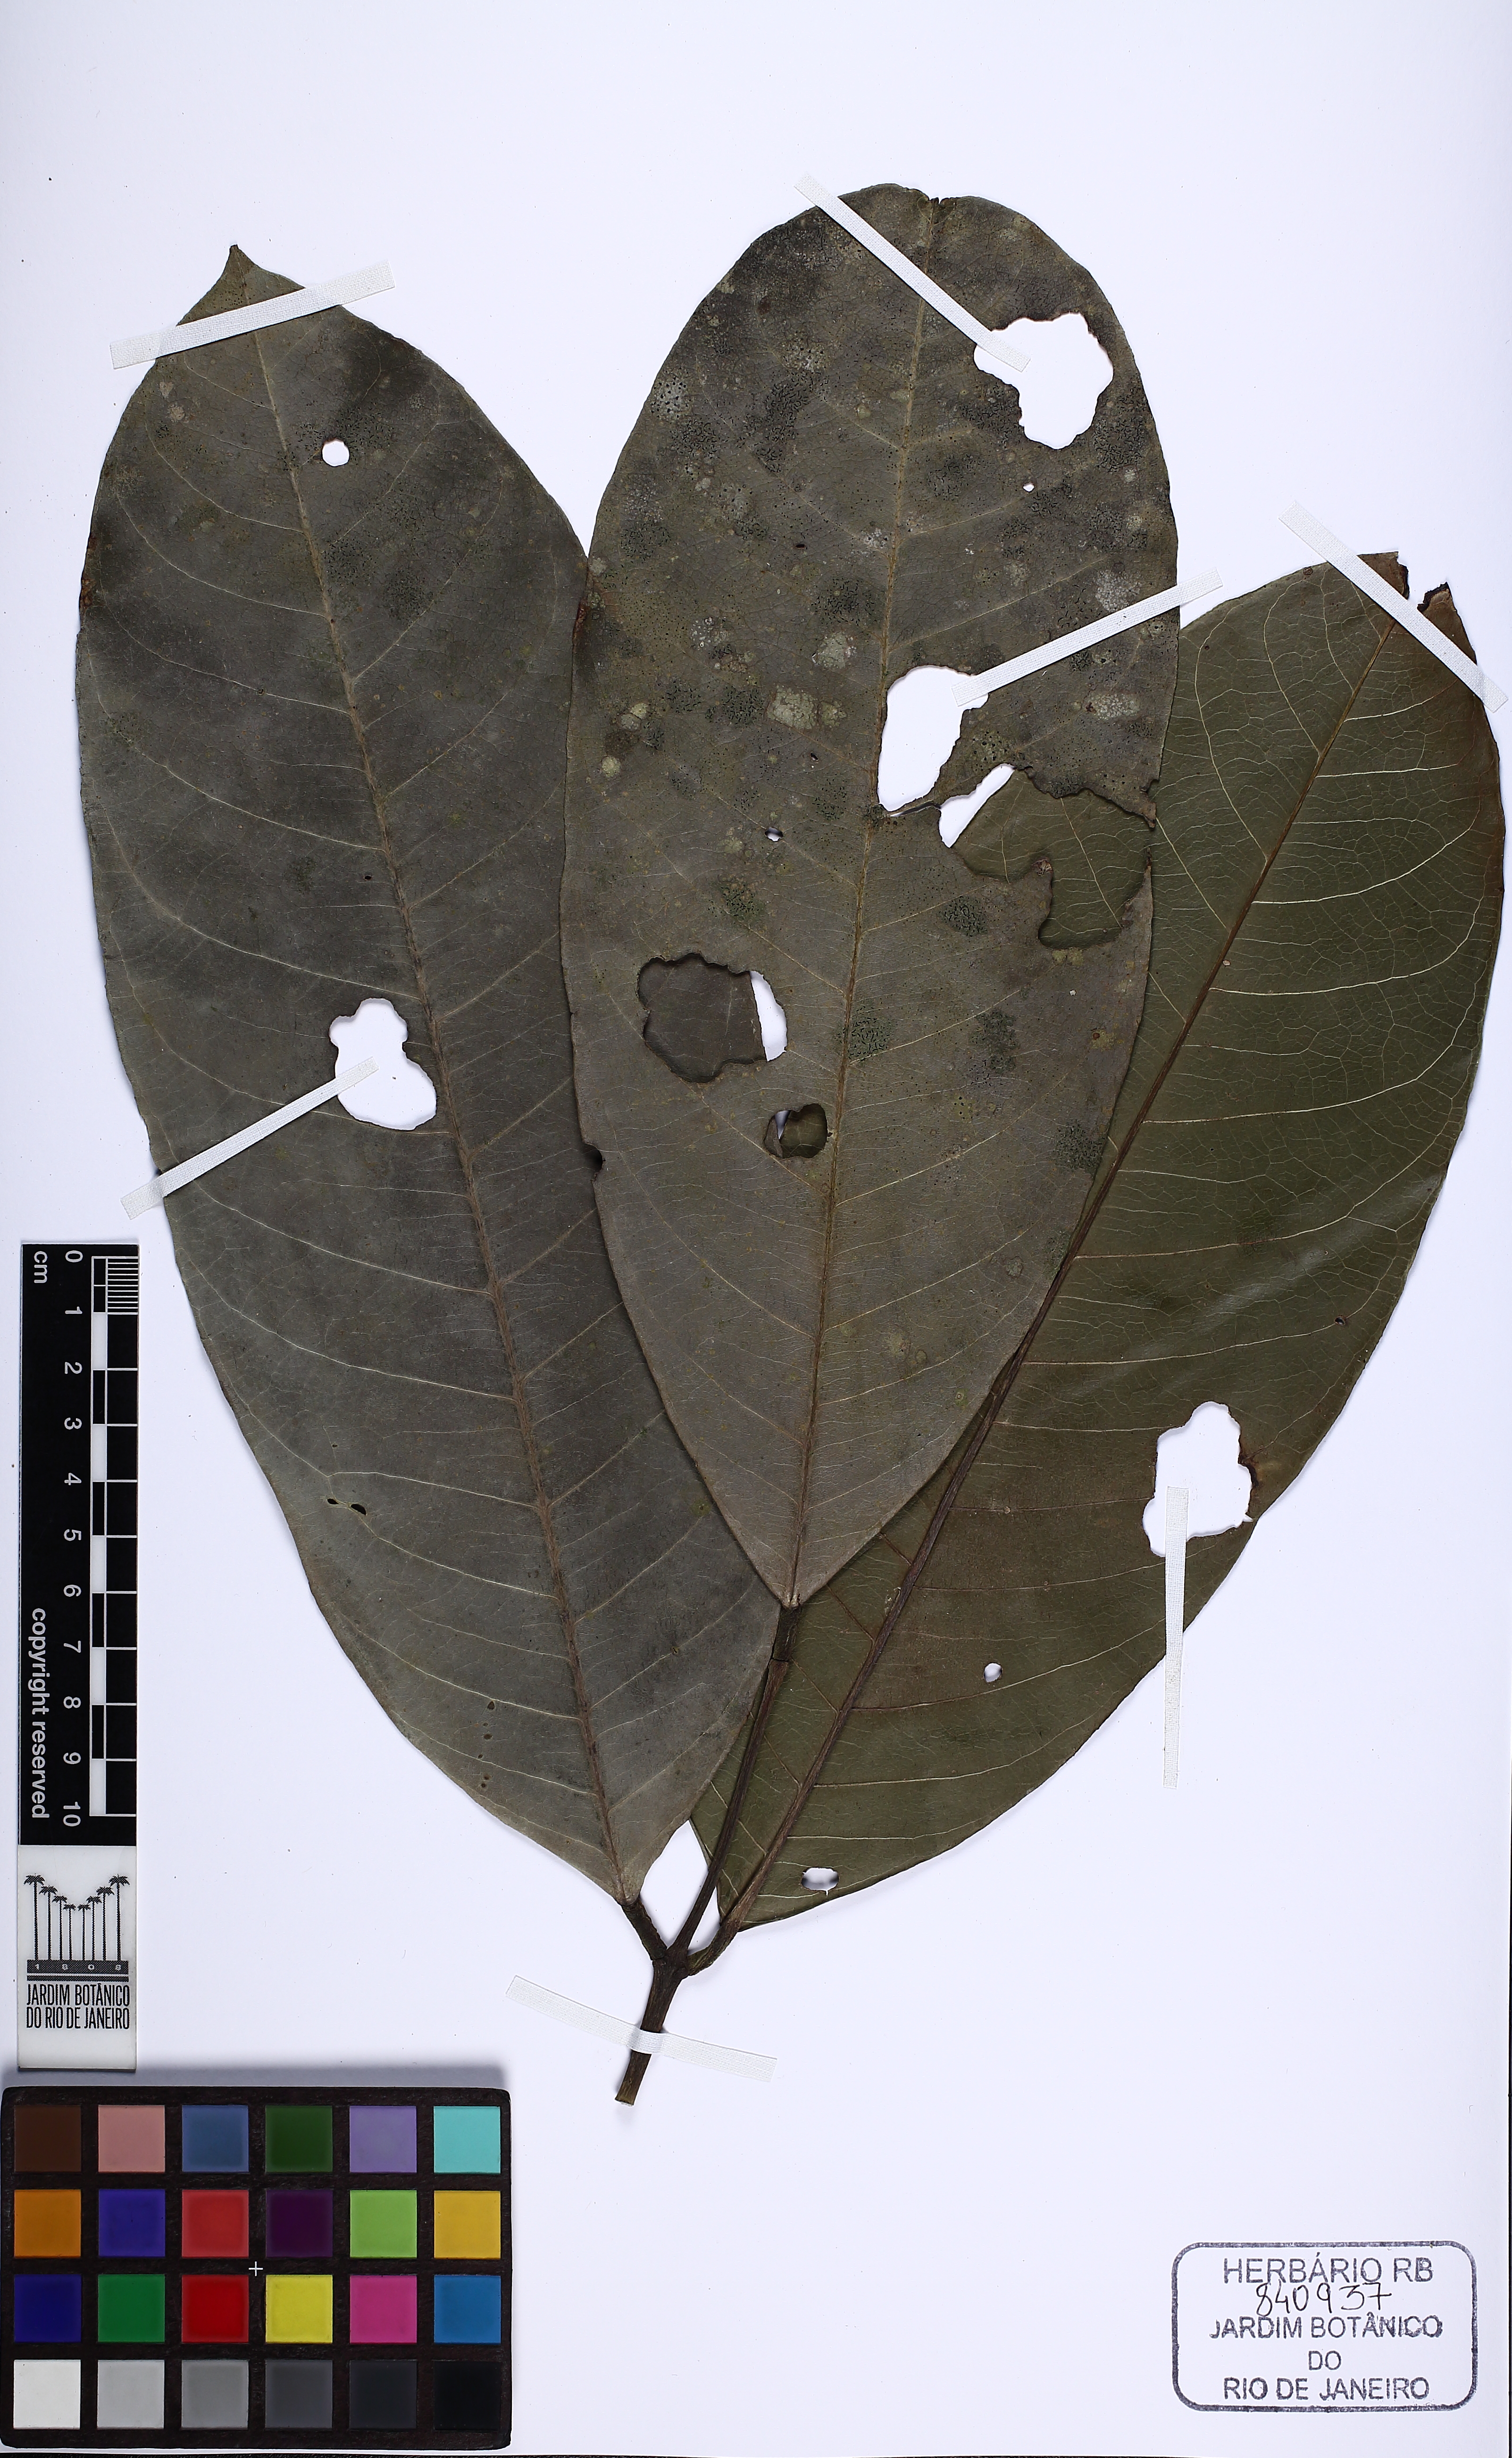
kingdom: Plantae
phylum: Tracheophyta
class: Magnoliopsida
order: Fabales
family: Fabaceae
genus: Ormosia
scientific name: Ormosia timboensis
